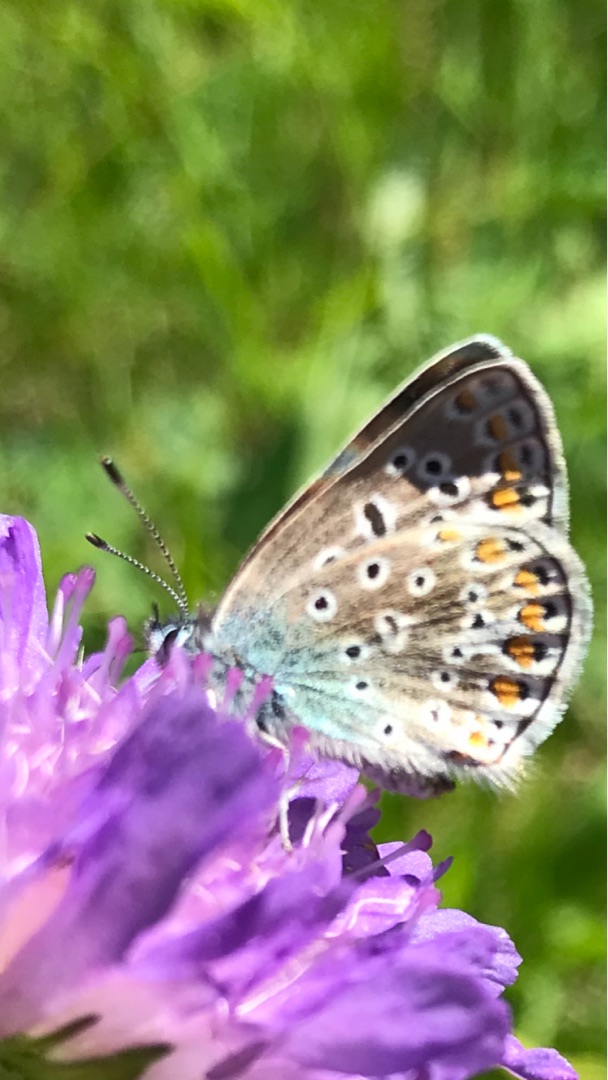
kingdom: Animalia
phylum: Arthropoda
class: Insecta
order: Lepidoptera
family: Lycaenidae
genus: Polyommatus
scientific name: Polyommatus icarus
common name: Almindelig blåfugl
